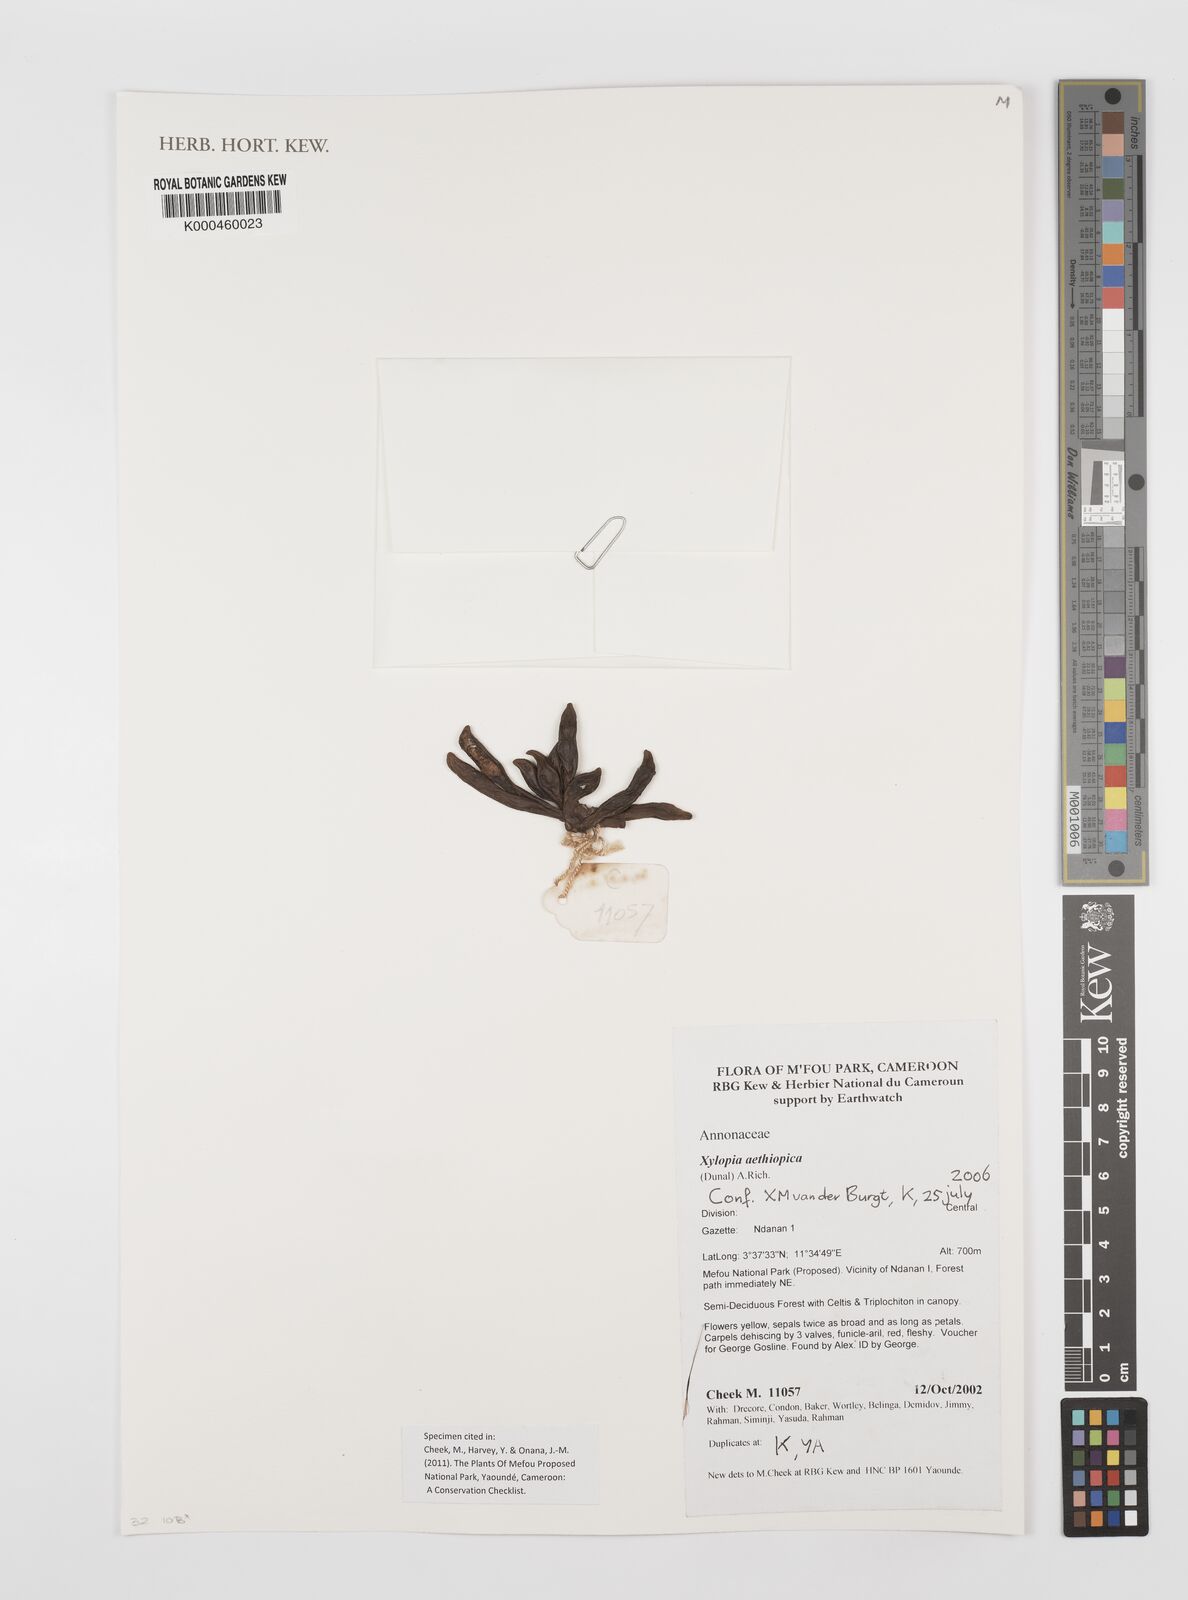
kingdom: Plantae
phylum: Tracheophyta
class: Magnoliopsida
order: Magnoliales
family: Annonaceae
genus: Xylopia
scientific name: Xylopia aethiopica
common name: Ethiopian-pepper
